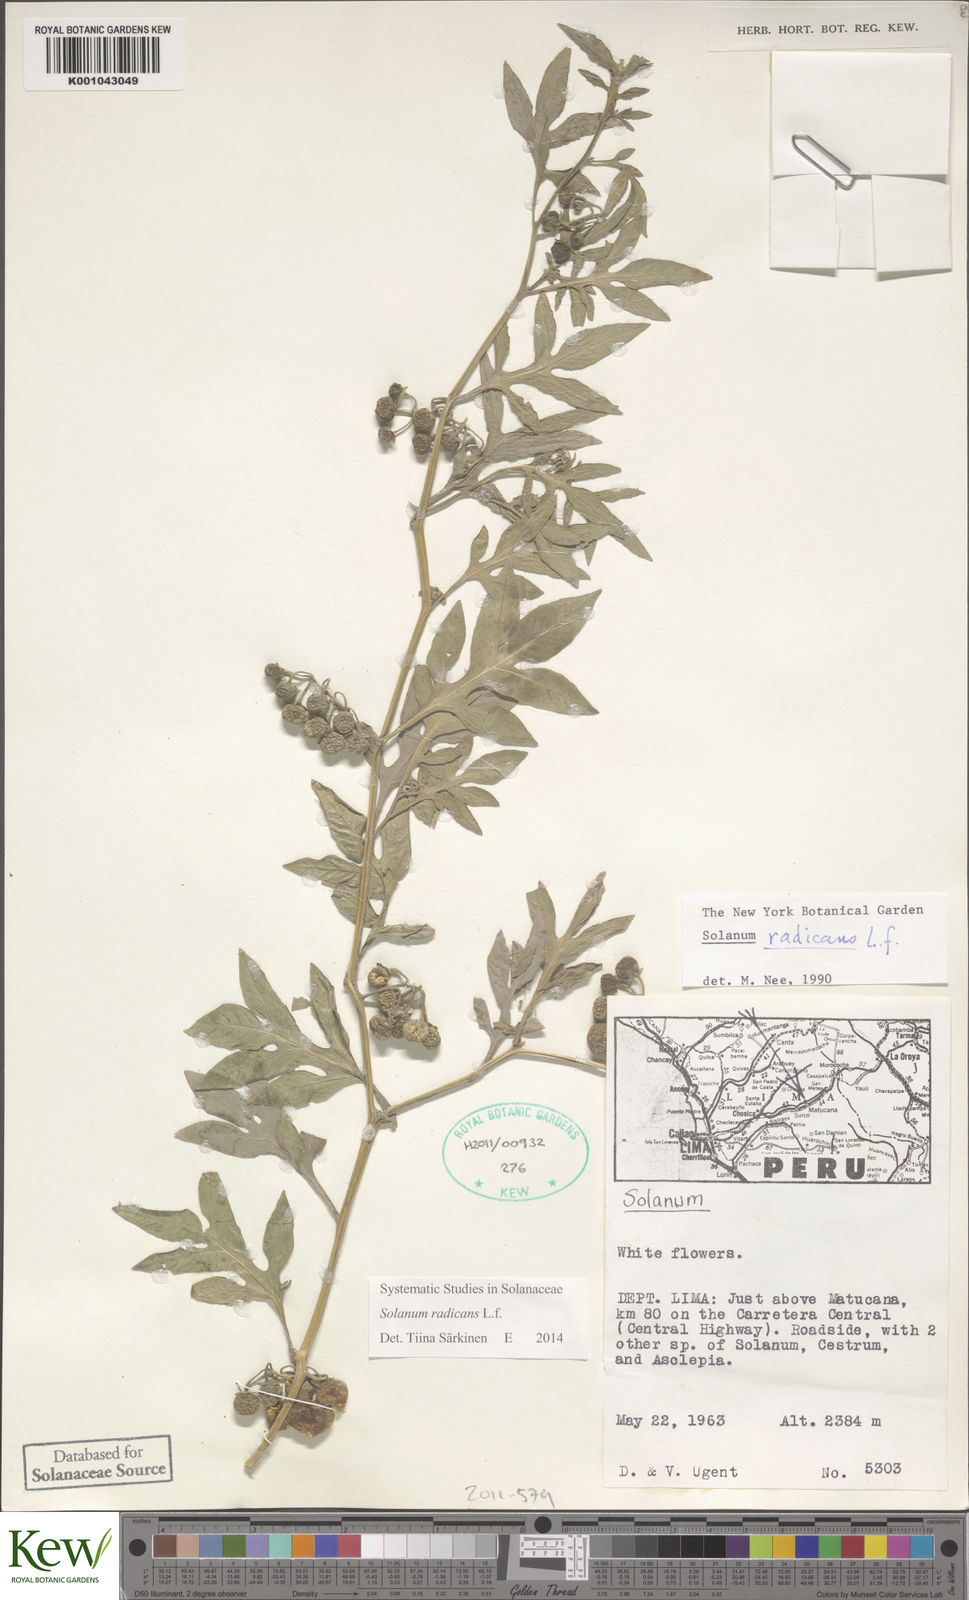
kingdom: Plantae
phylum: Tracheophyta
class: Magnoliopsida
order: Solanales
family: Solanaceae
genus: Solanum
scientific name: Solanum radicans
